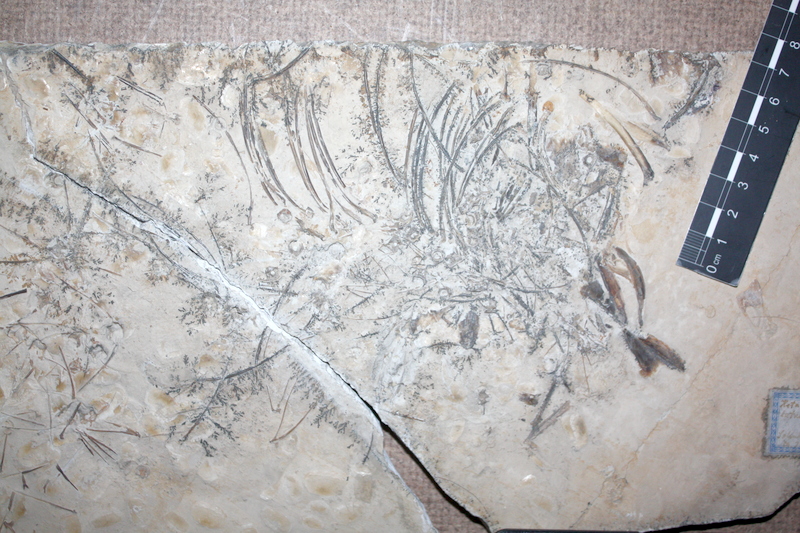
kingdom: Animalia
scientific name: Animalia
